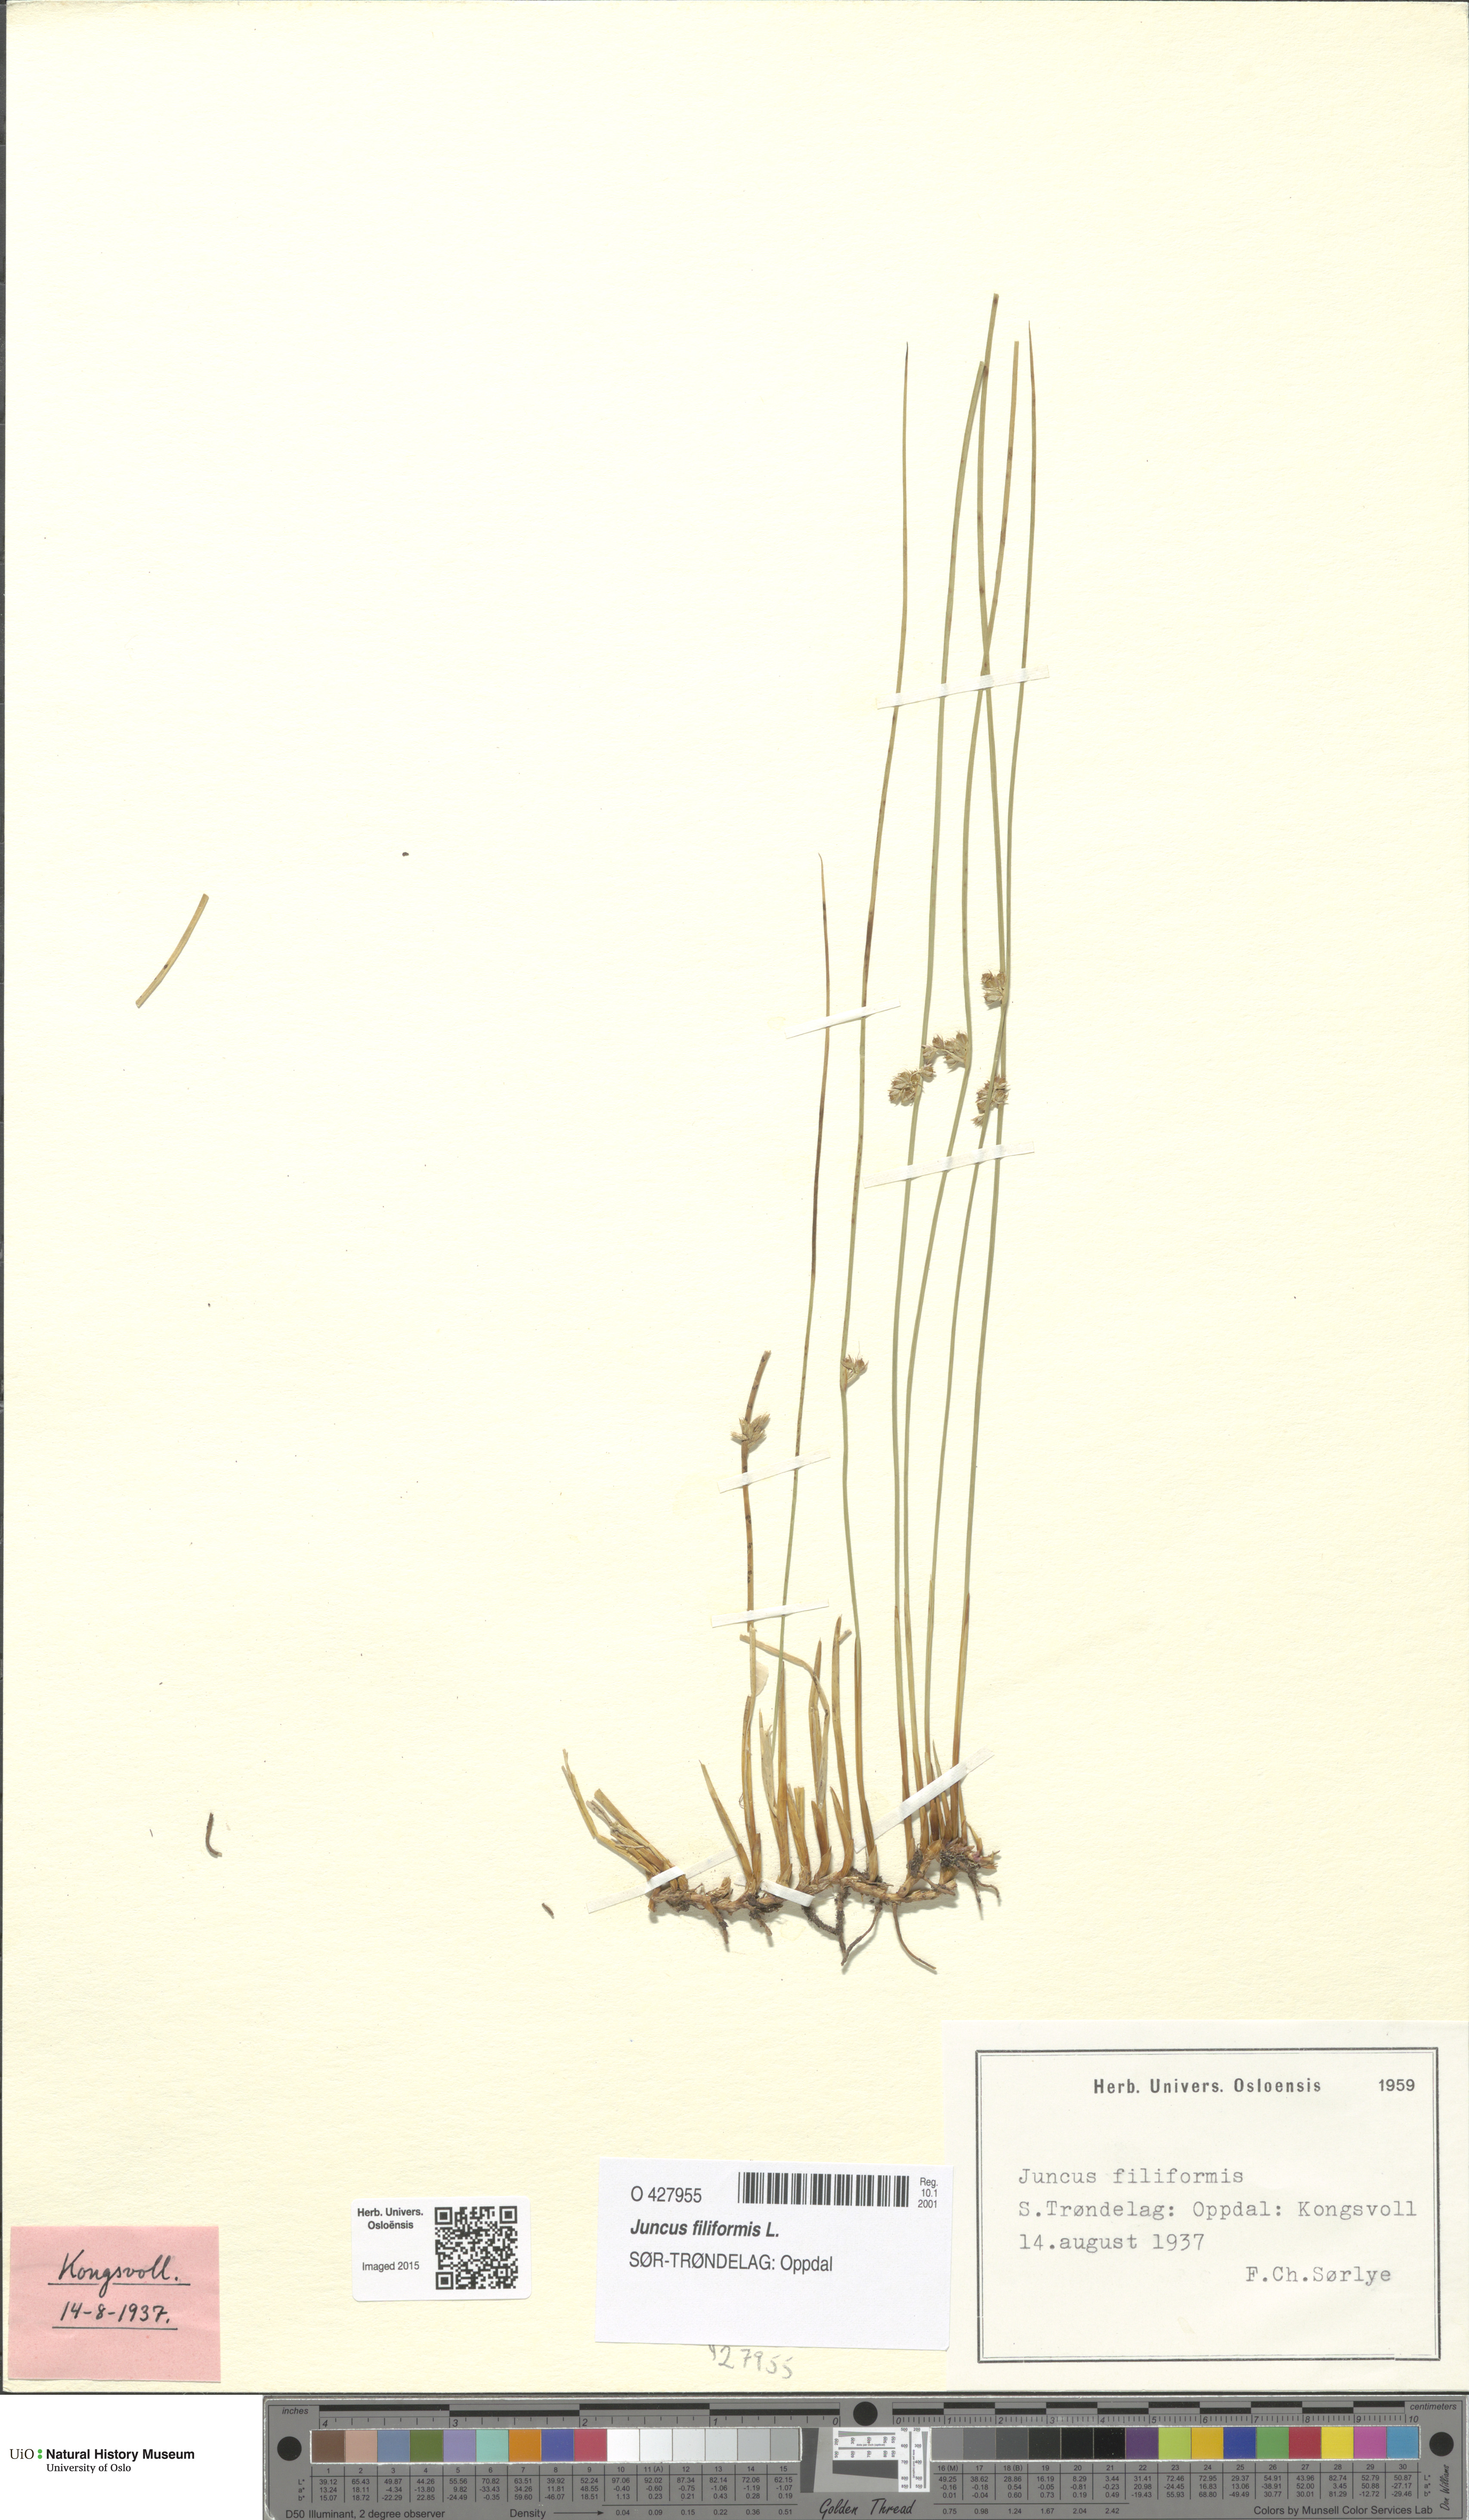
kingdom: Plantae
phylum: Tracheophyta
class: Liliopsida
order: Poales
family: Juncaceae
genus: Juncus
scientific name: Juncus filiformis
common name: Thread rush
